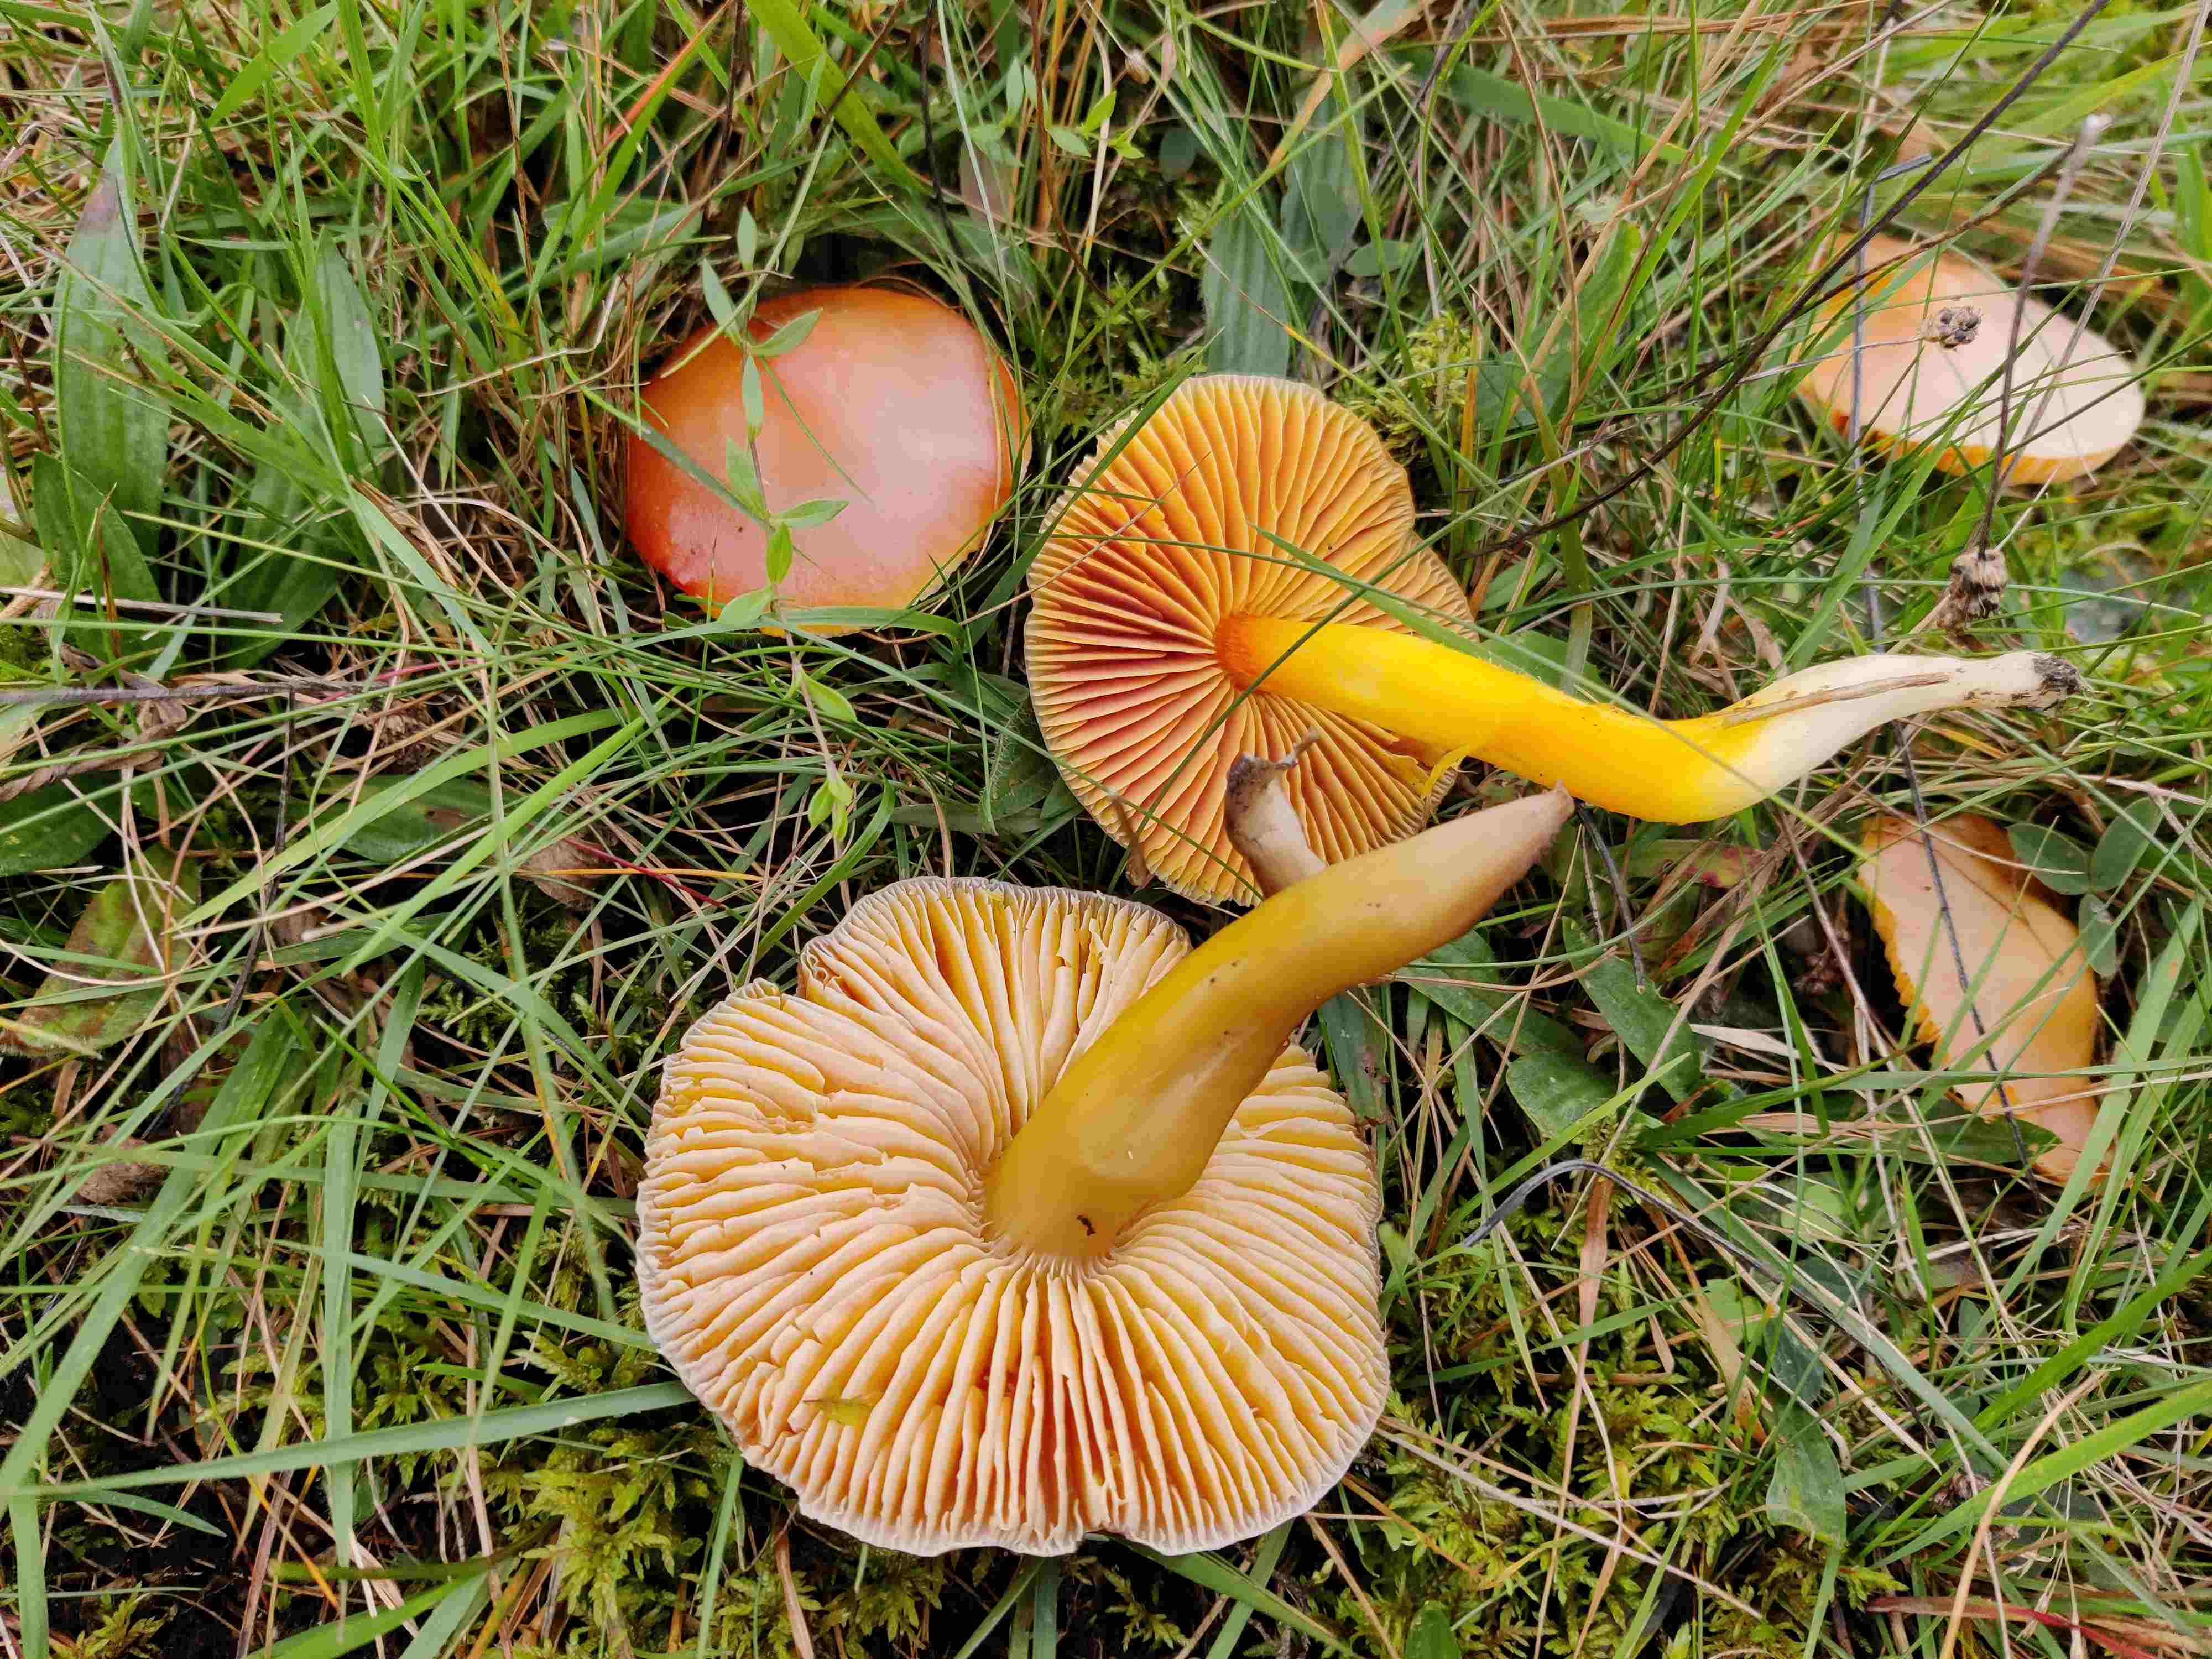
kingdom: Fungi
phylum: Basidiomycota
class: Agaricomycetes
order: Agaricales
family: Hygrophoraceae
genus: Hygrocybe
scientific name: Hygrocybe punicea
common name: skarlagen-vokshat
